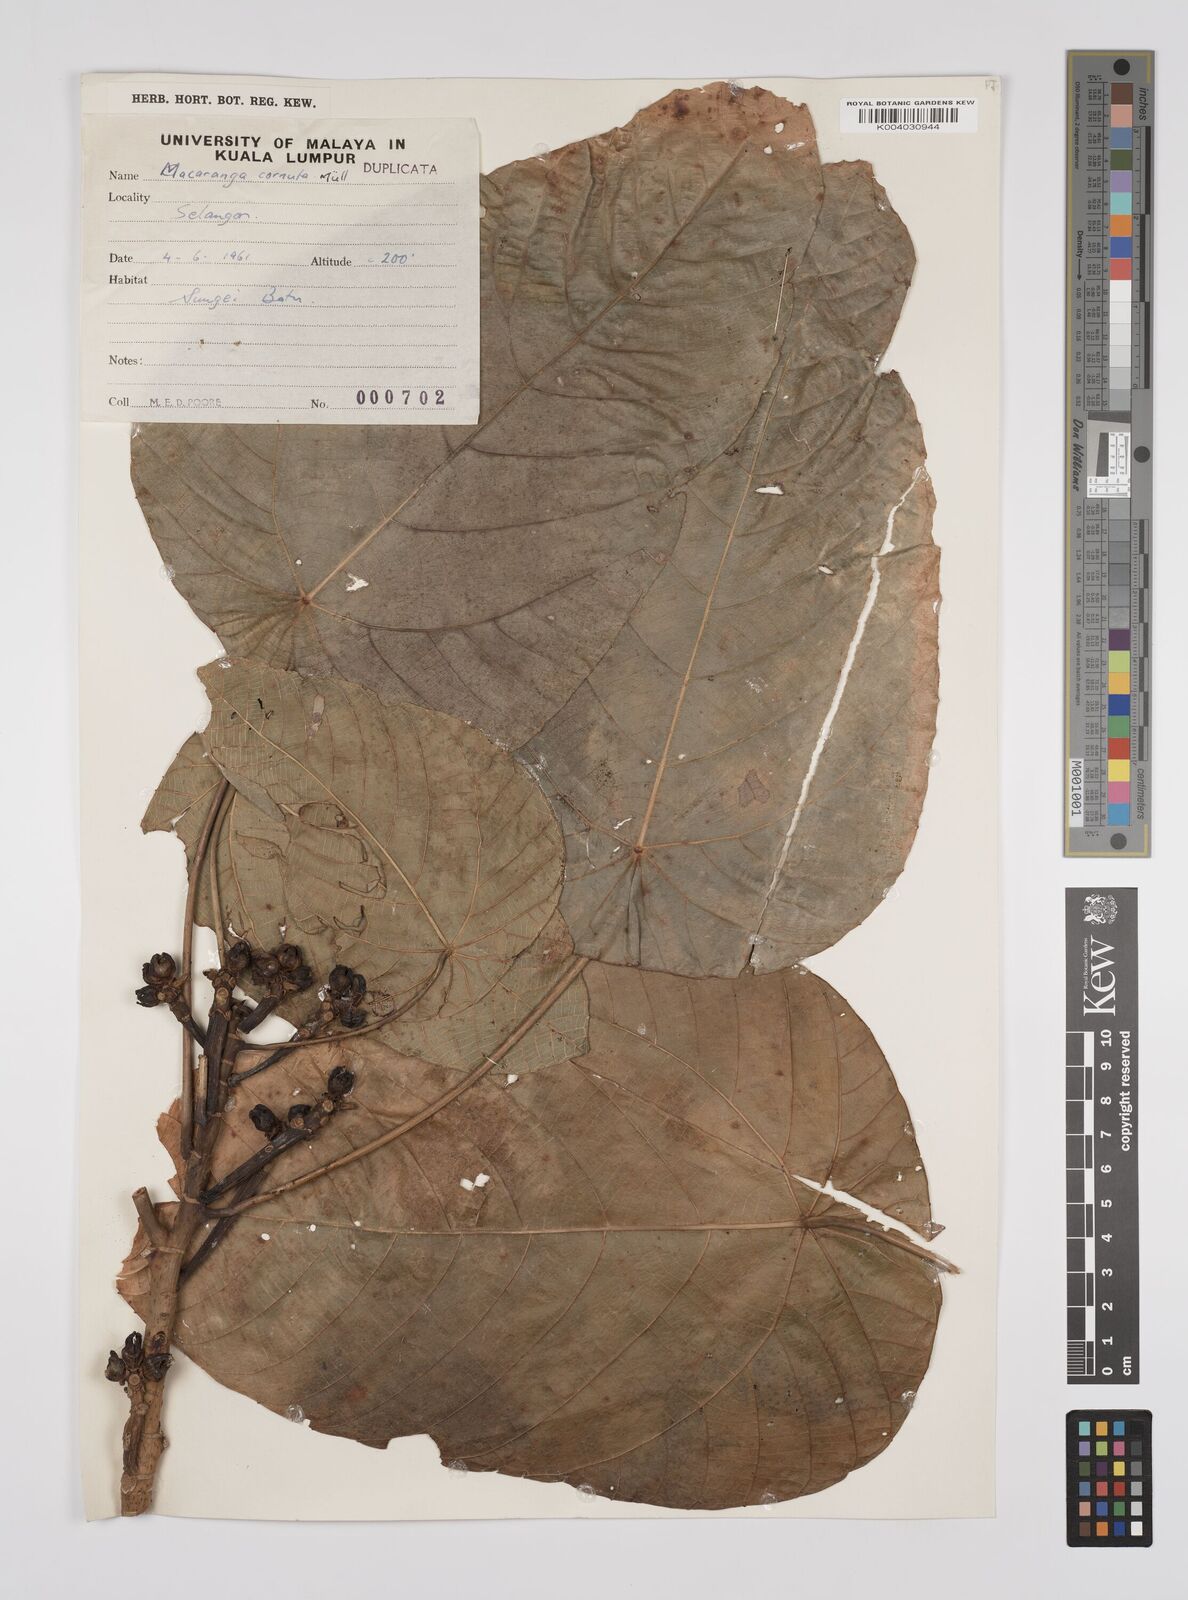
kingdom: Plantae
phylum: Tracheophyta
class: Magnoliopsida
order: Malpighiales
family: Euphorbiaceae
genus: Macaranga
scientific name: Macaranga hullettii
